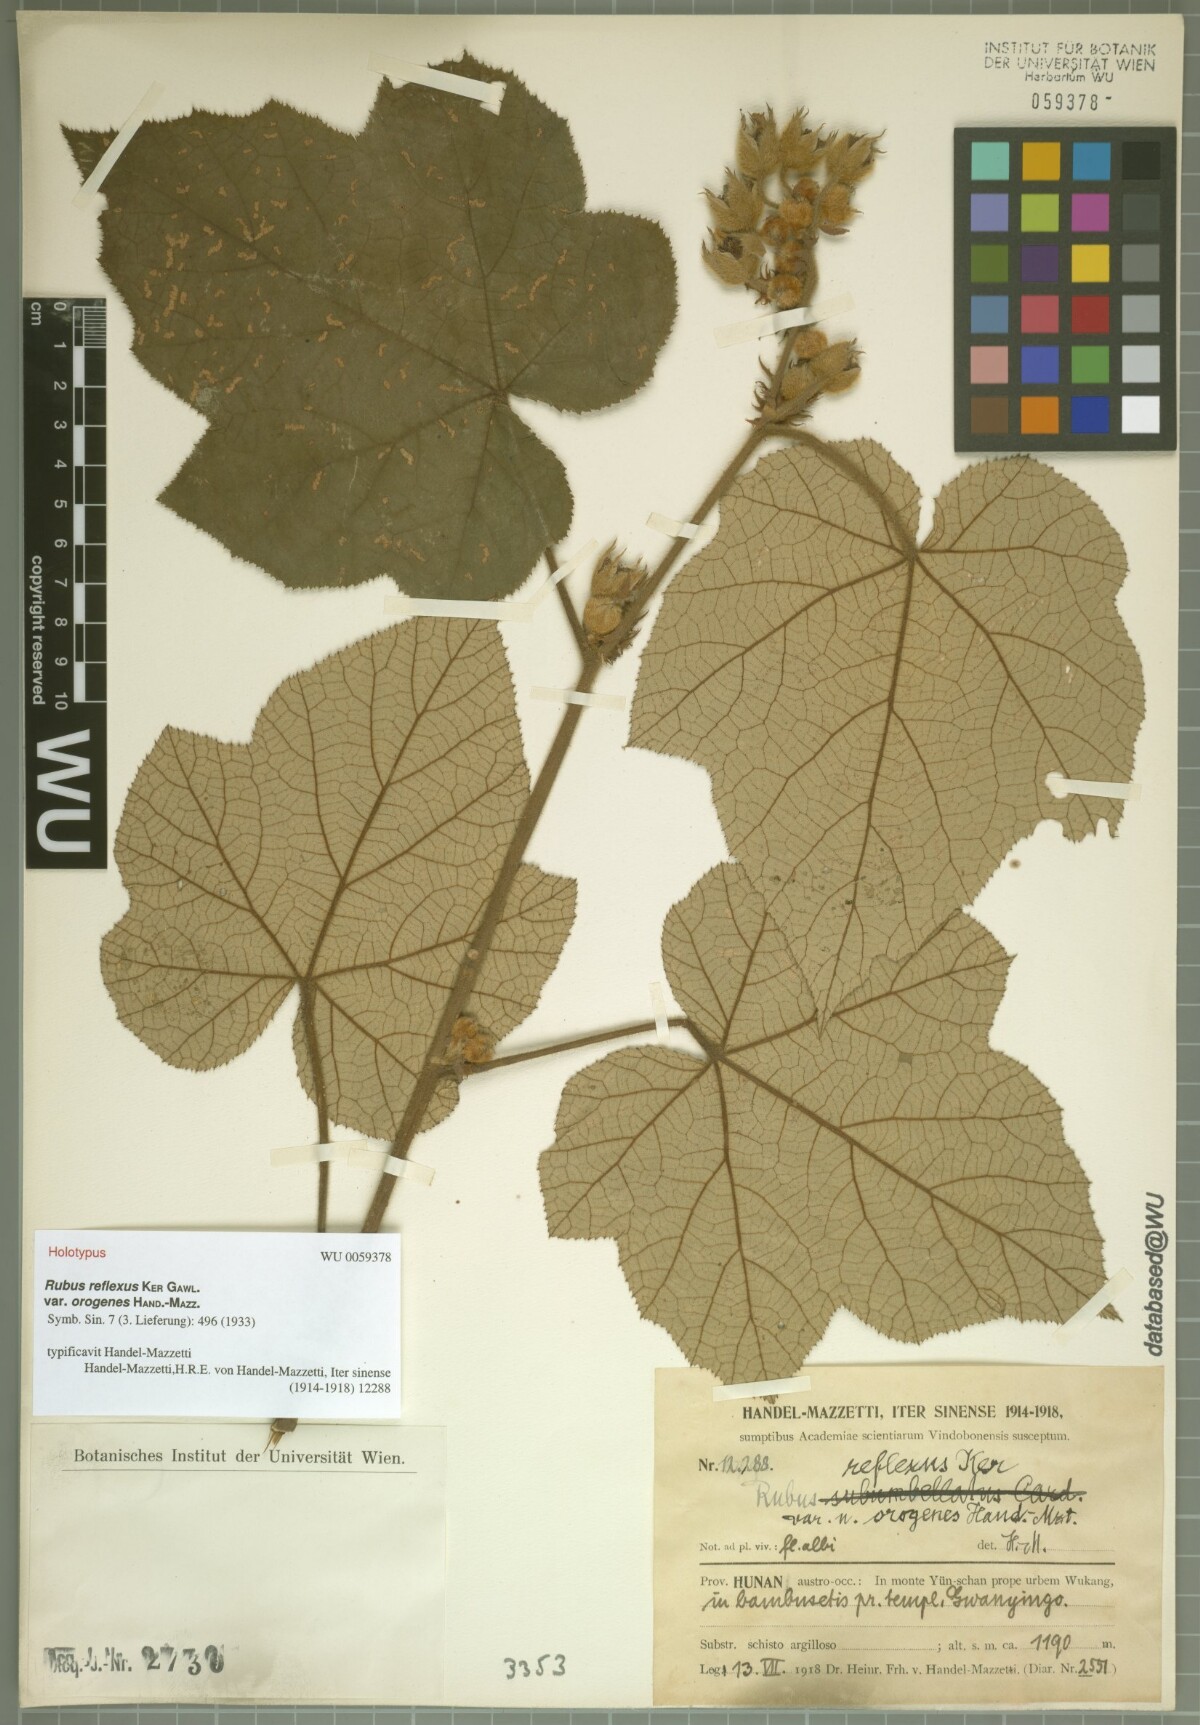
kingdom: Plantae
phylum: Tracheophyta
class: Magnoliopsida
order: Rosales
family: Rosaceae
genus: Rubus
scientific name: Rubus reflexus
